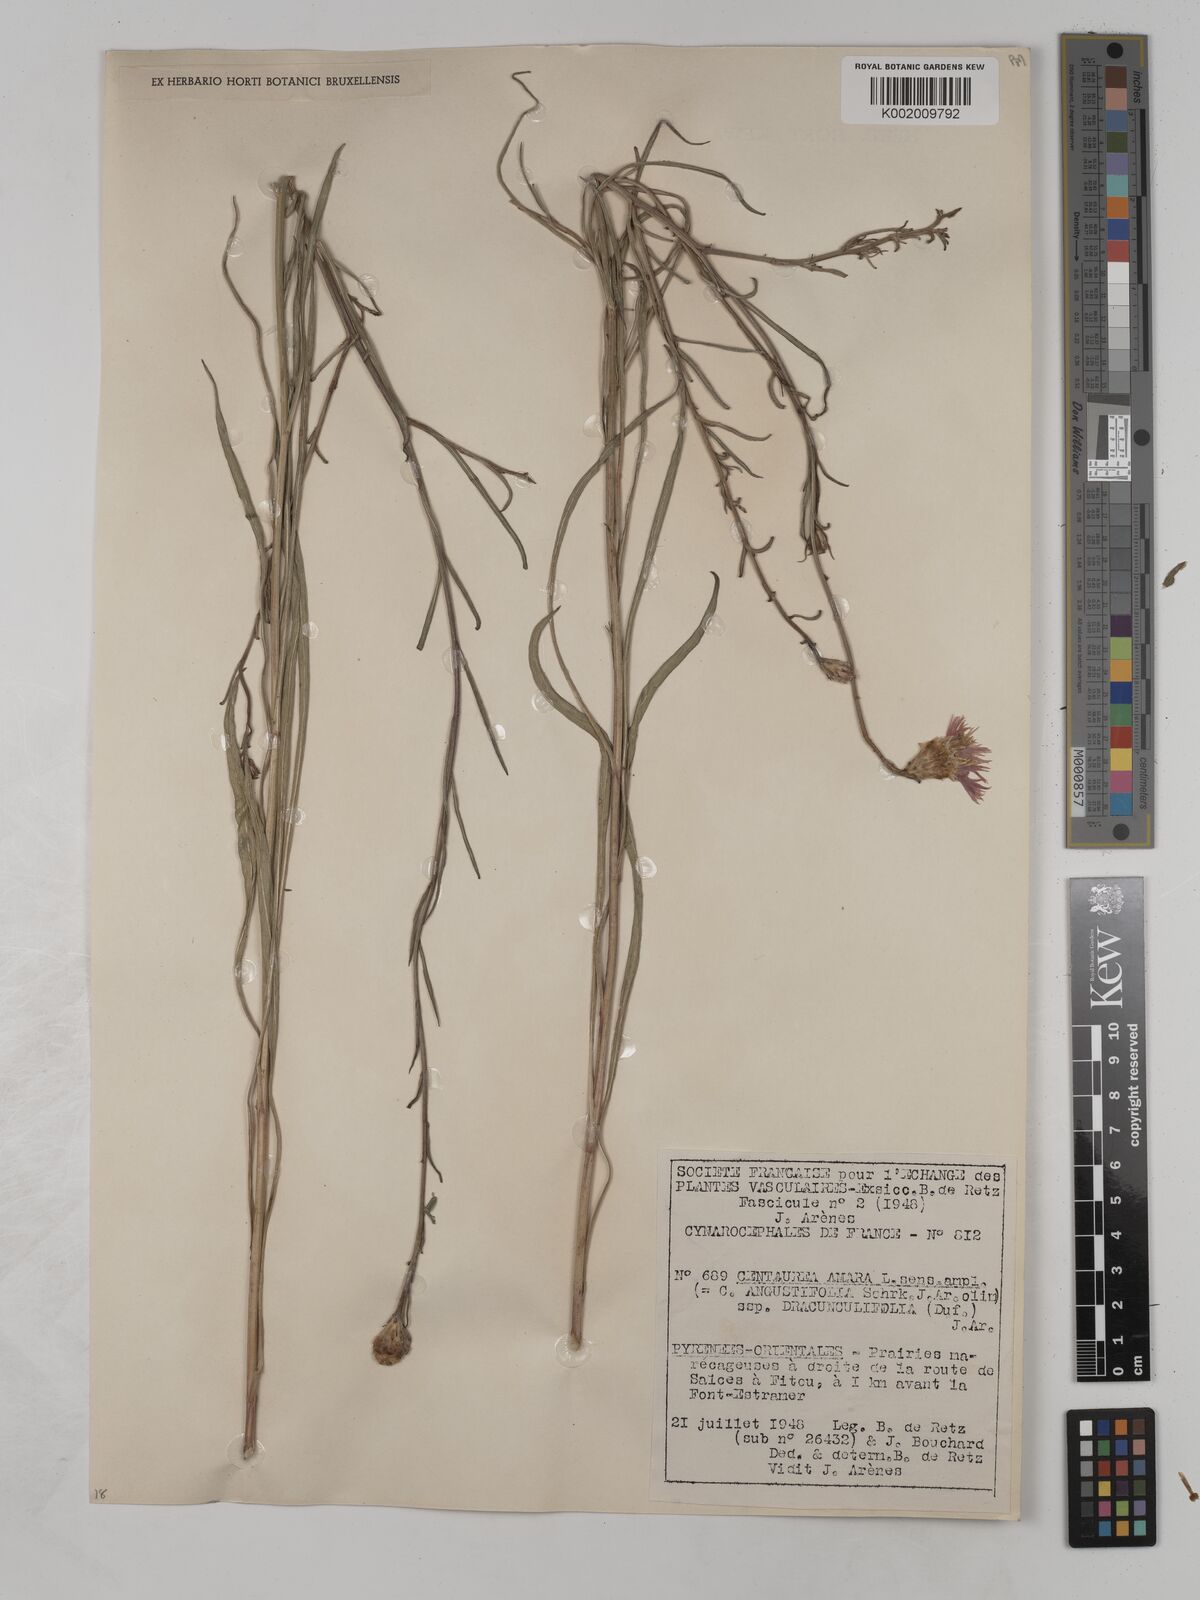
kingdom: Plantae
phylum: Tracheophyta
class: Magnoliopsida
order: Asterales
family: Asteraceae
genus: Centaurea
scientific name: Centaurea dracunculifolia
